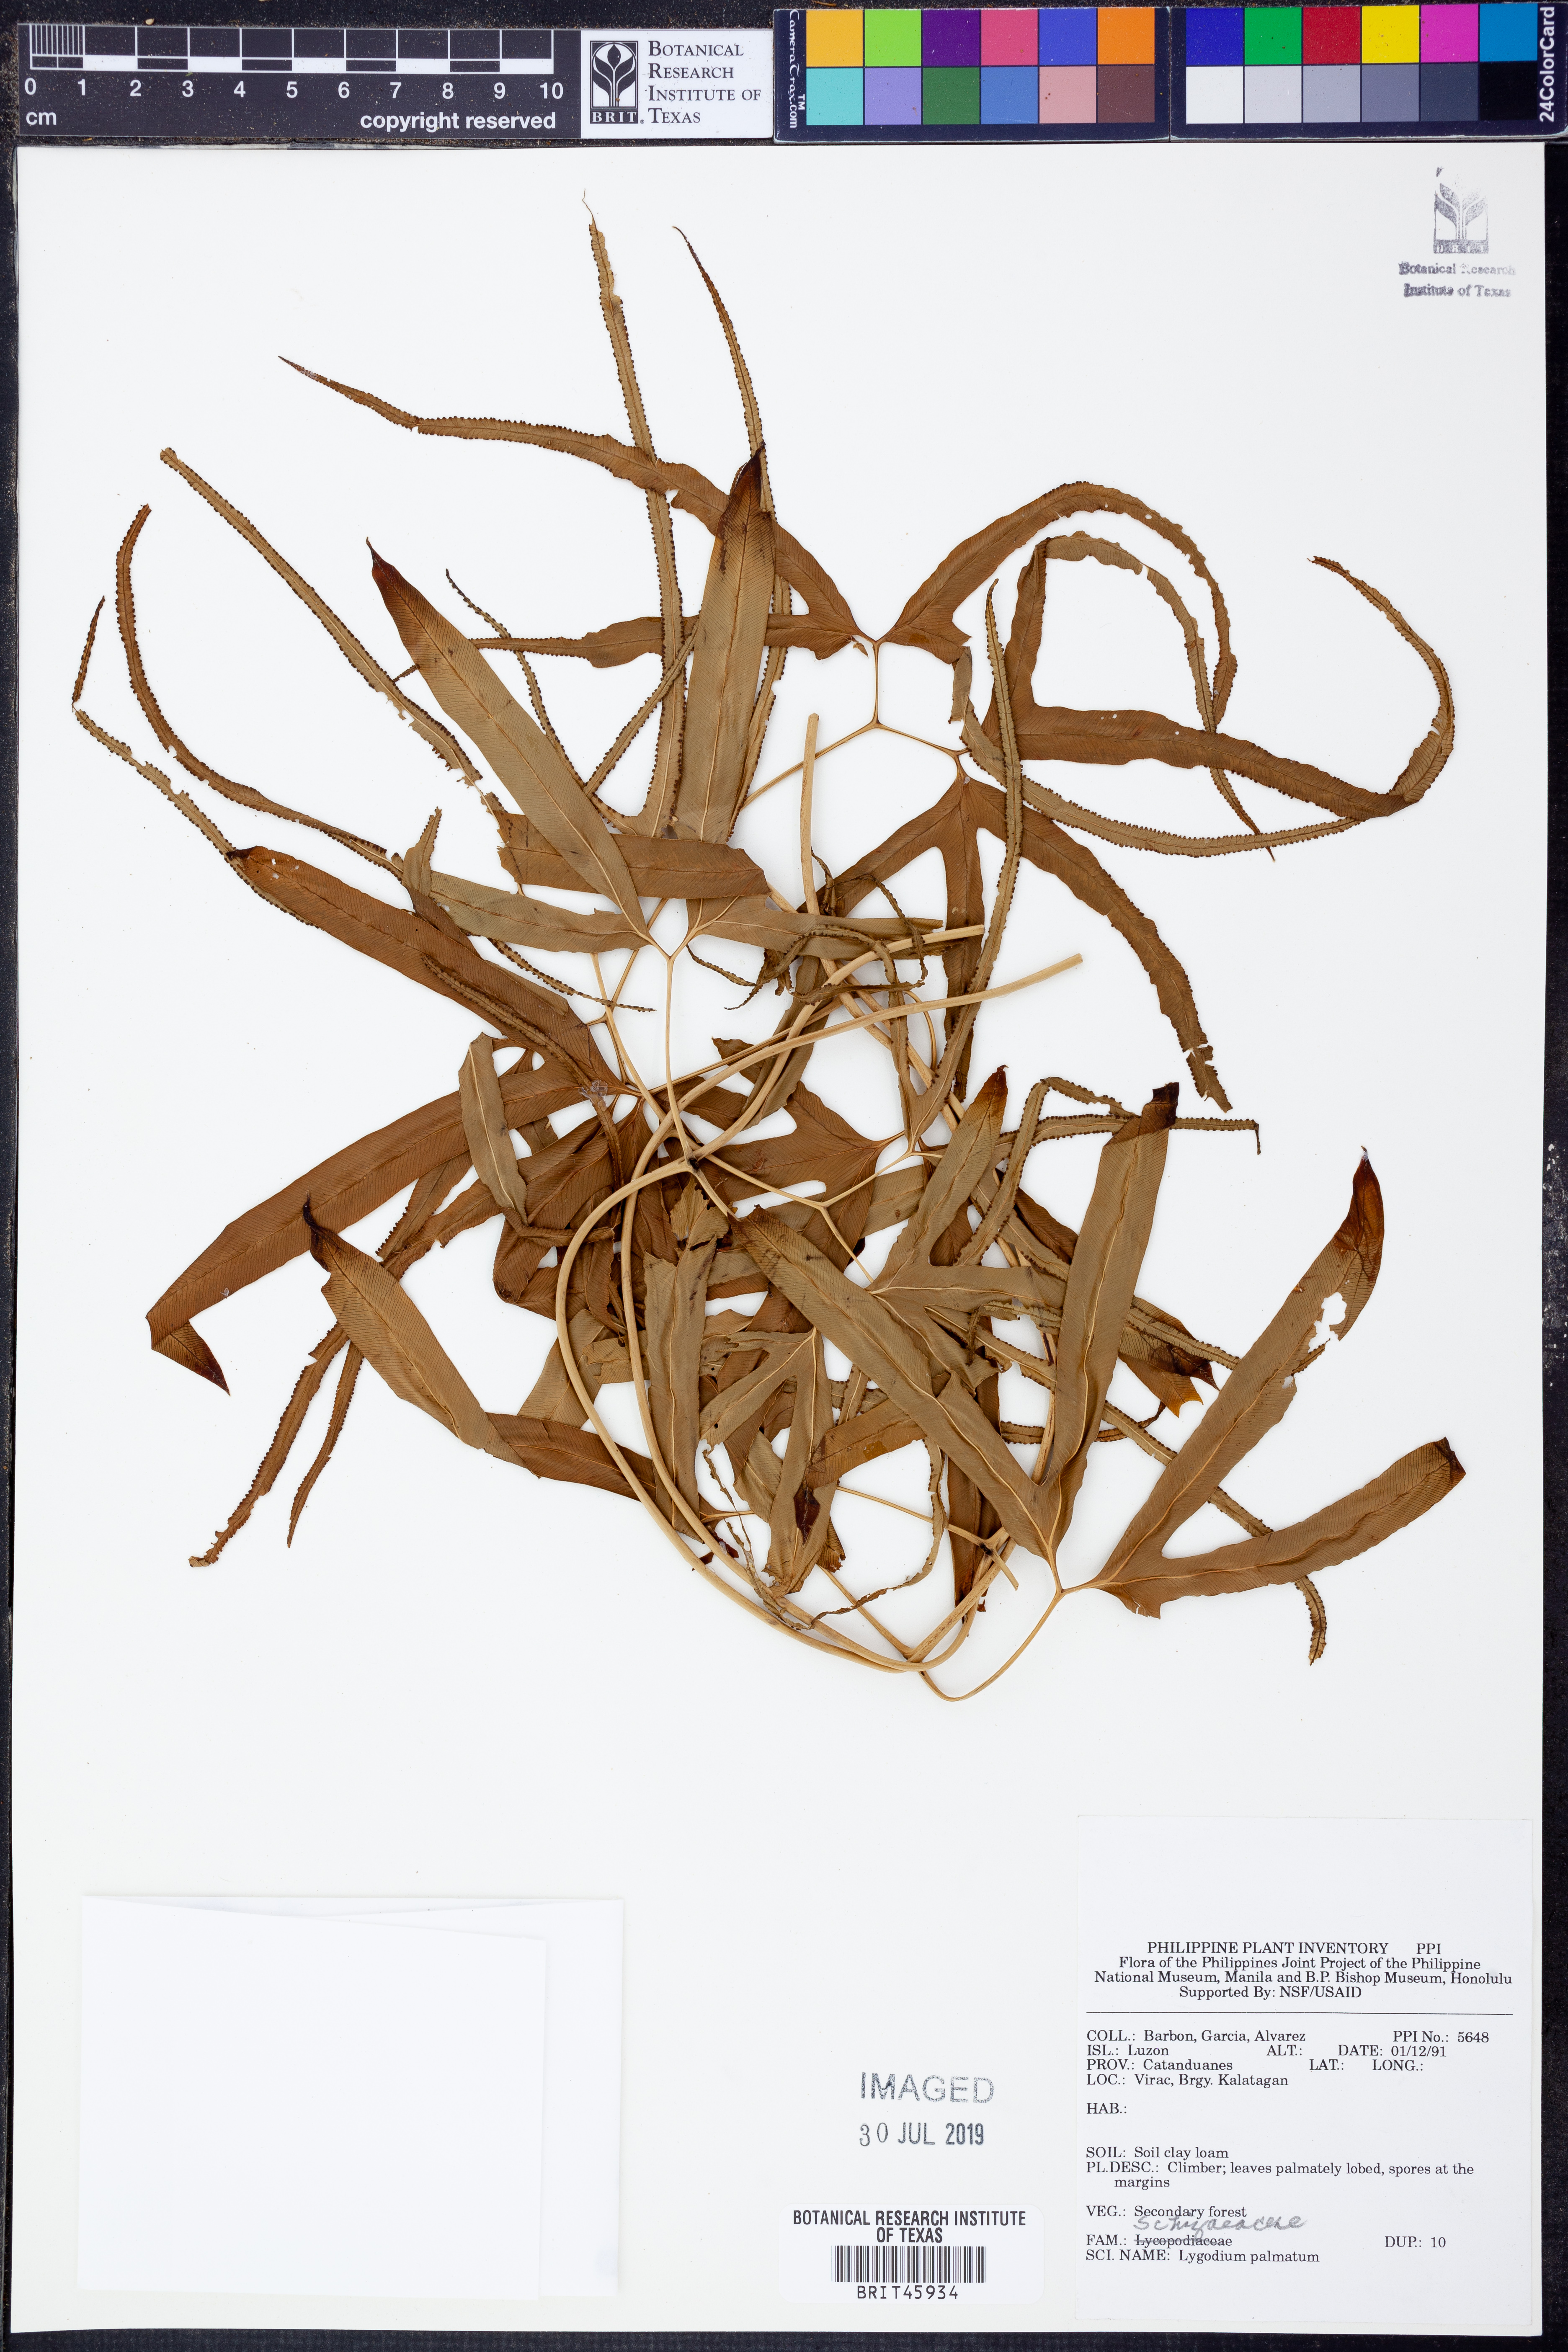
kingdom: Plantae
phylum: Tracheophyta
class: Polypodiopsida
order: Schizaeales
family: Lygodiaceae
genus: Lygodium
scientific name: Lygodium palmatum
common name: American climbing fern
